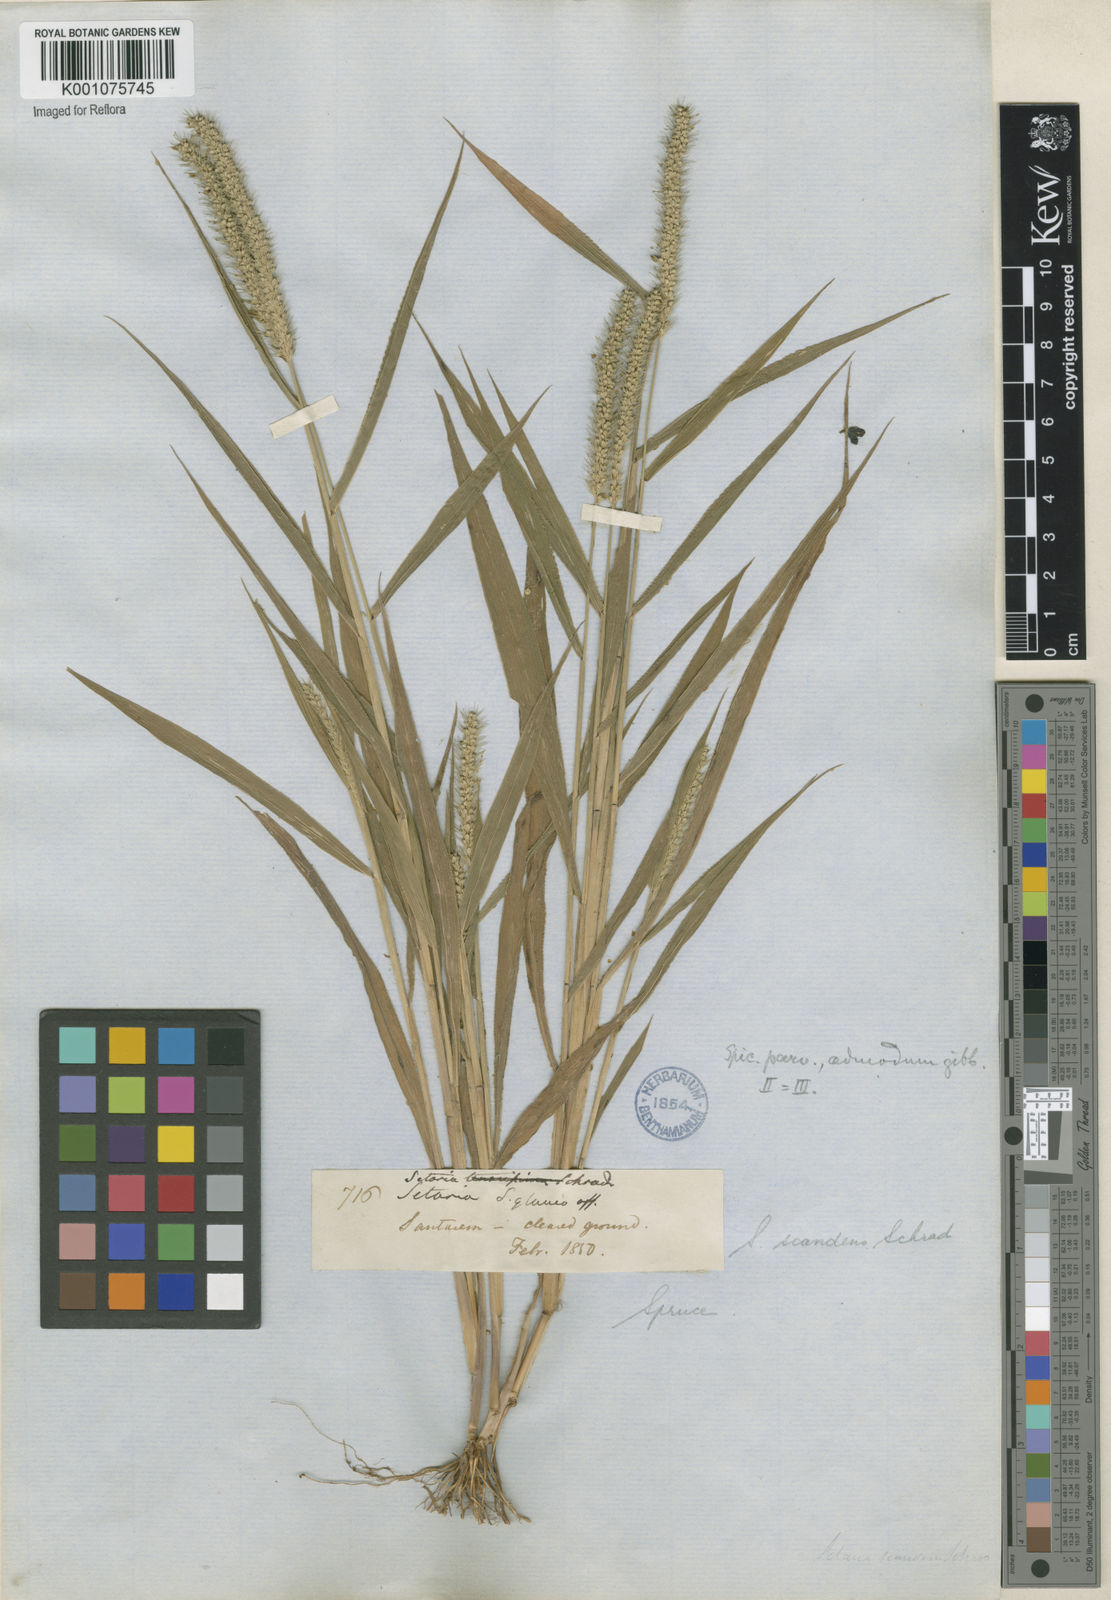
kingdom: Plantae
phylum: Tracheophyta
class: Liliopsida
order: Poales
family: Poaceae
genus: Setaria
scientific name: Setaria scandens
